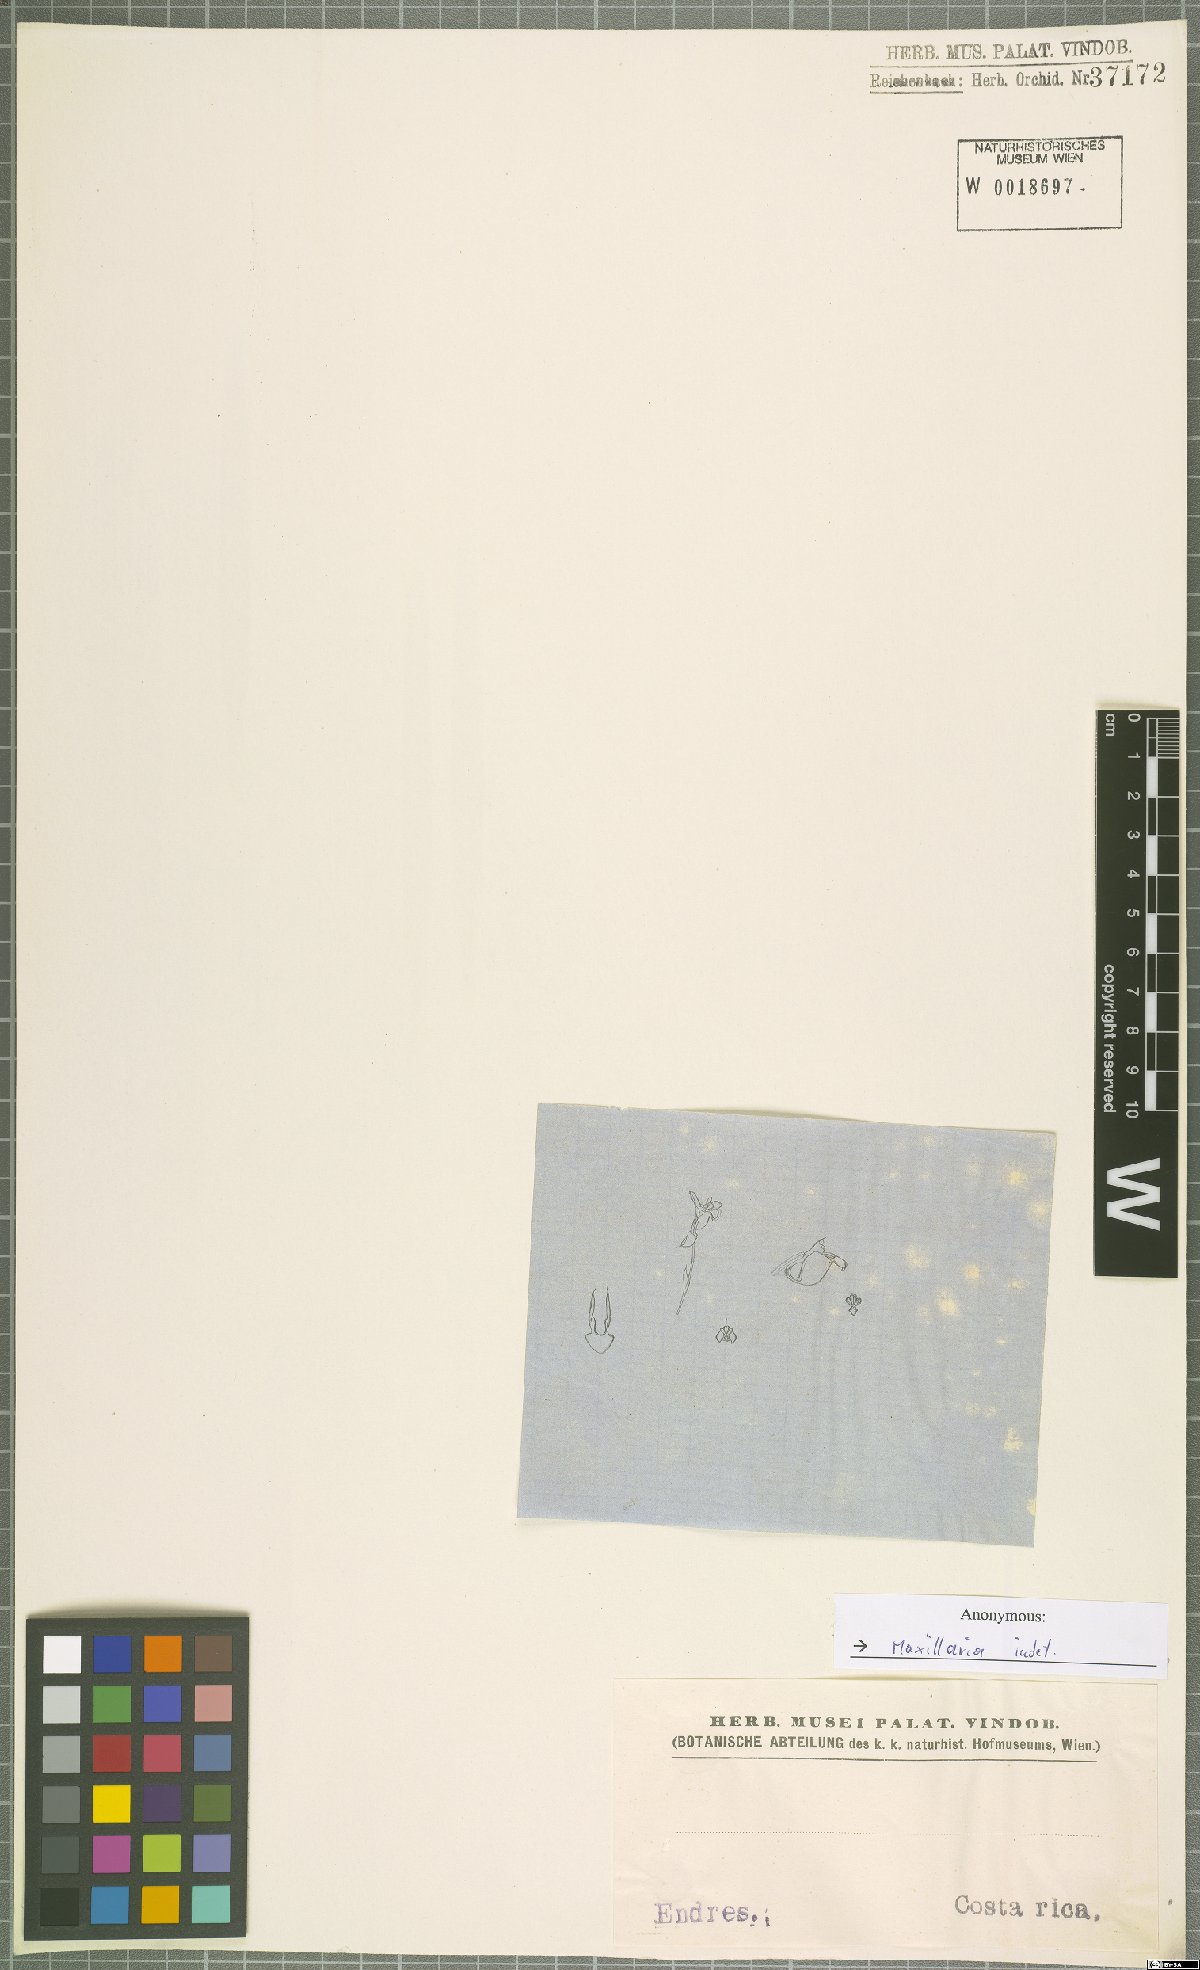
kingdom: Plantae
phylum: Tracheophyta
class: Liliopsida
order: Asparagales
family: Orchidaceae
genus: Maxillaria
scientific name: Maxillaria
